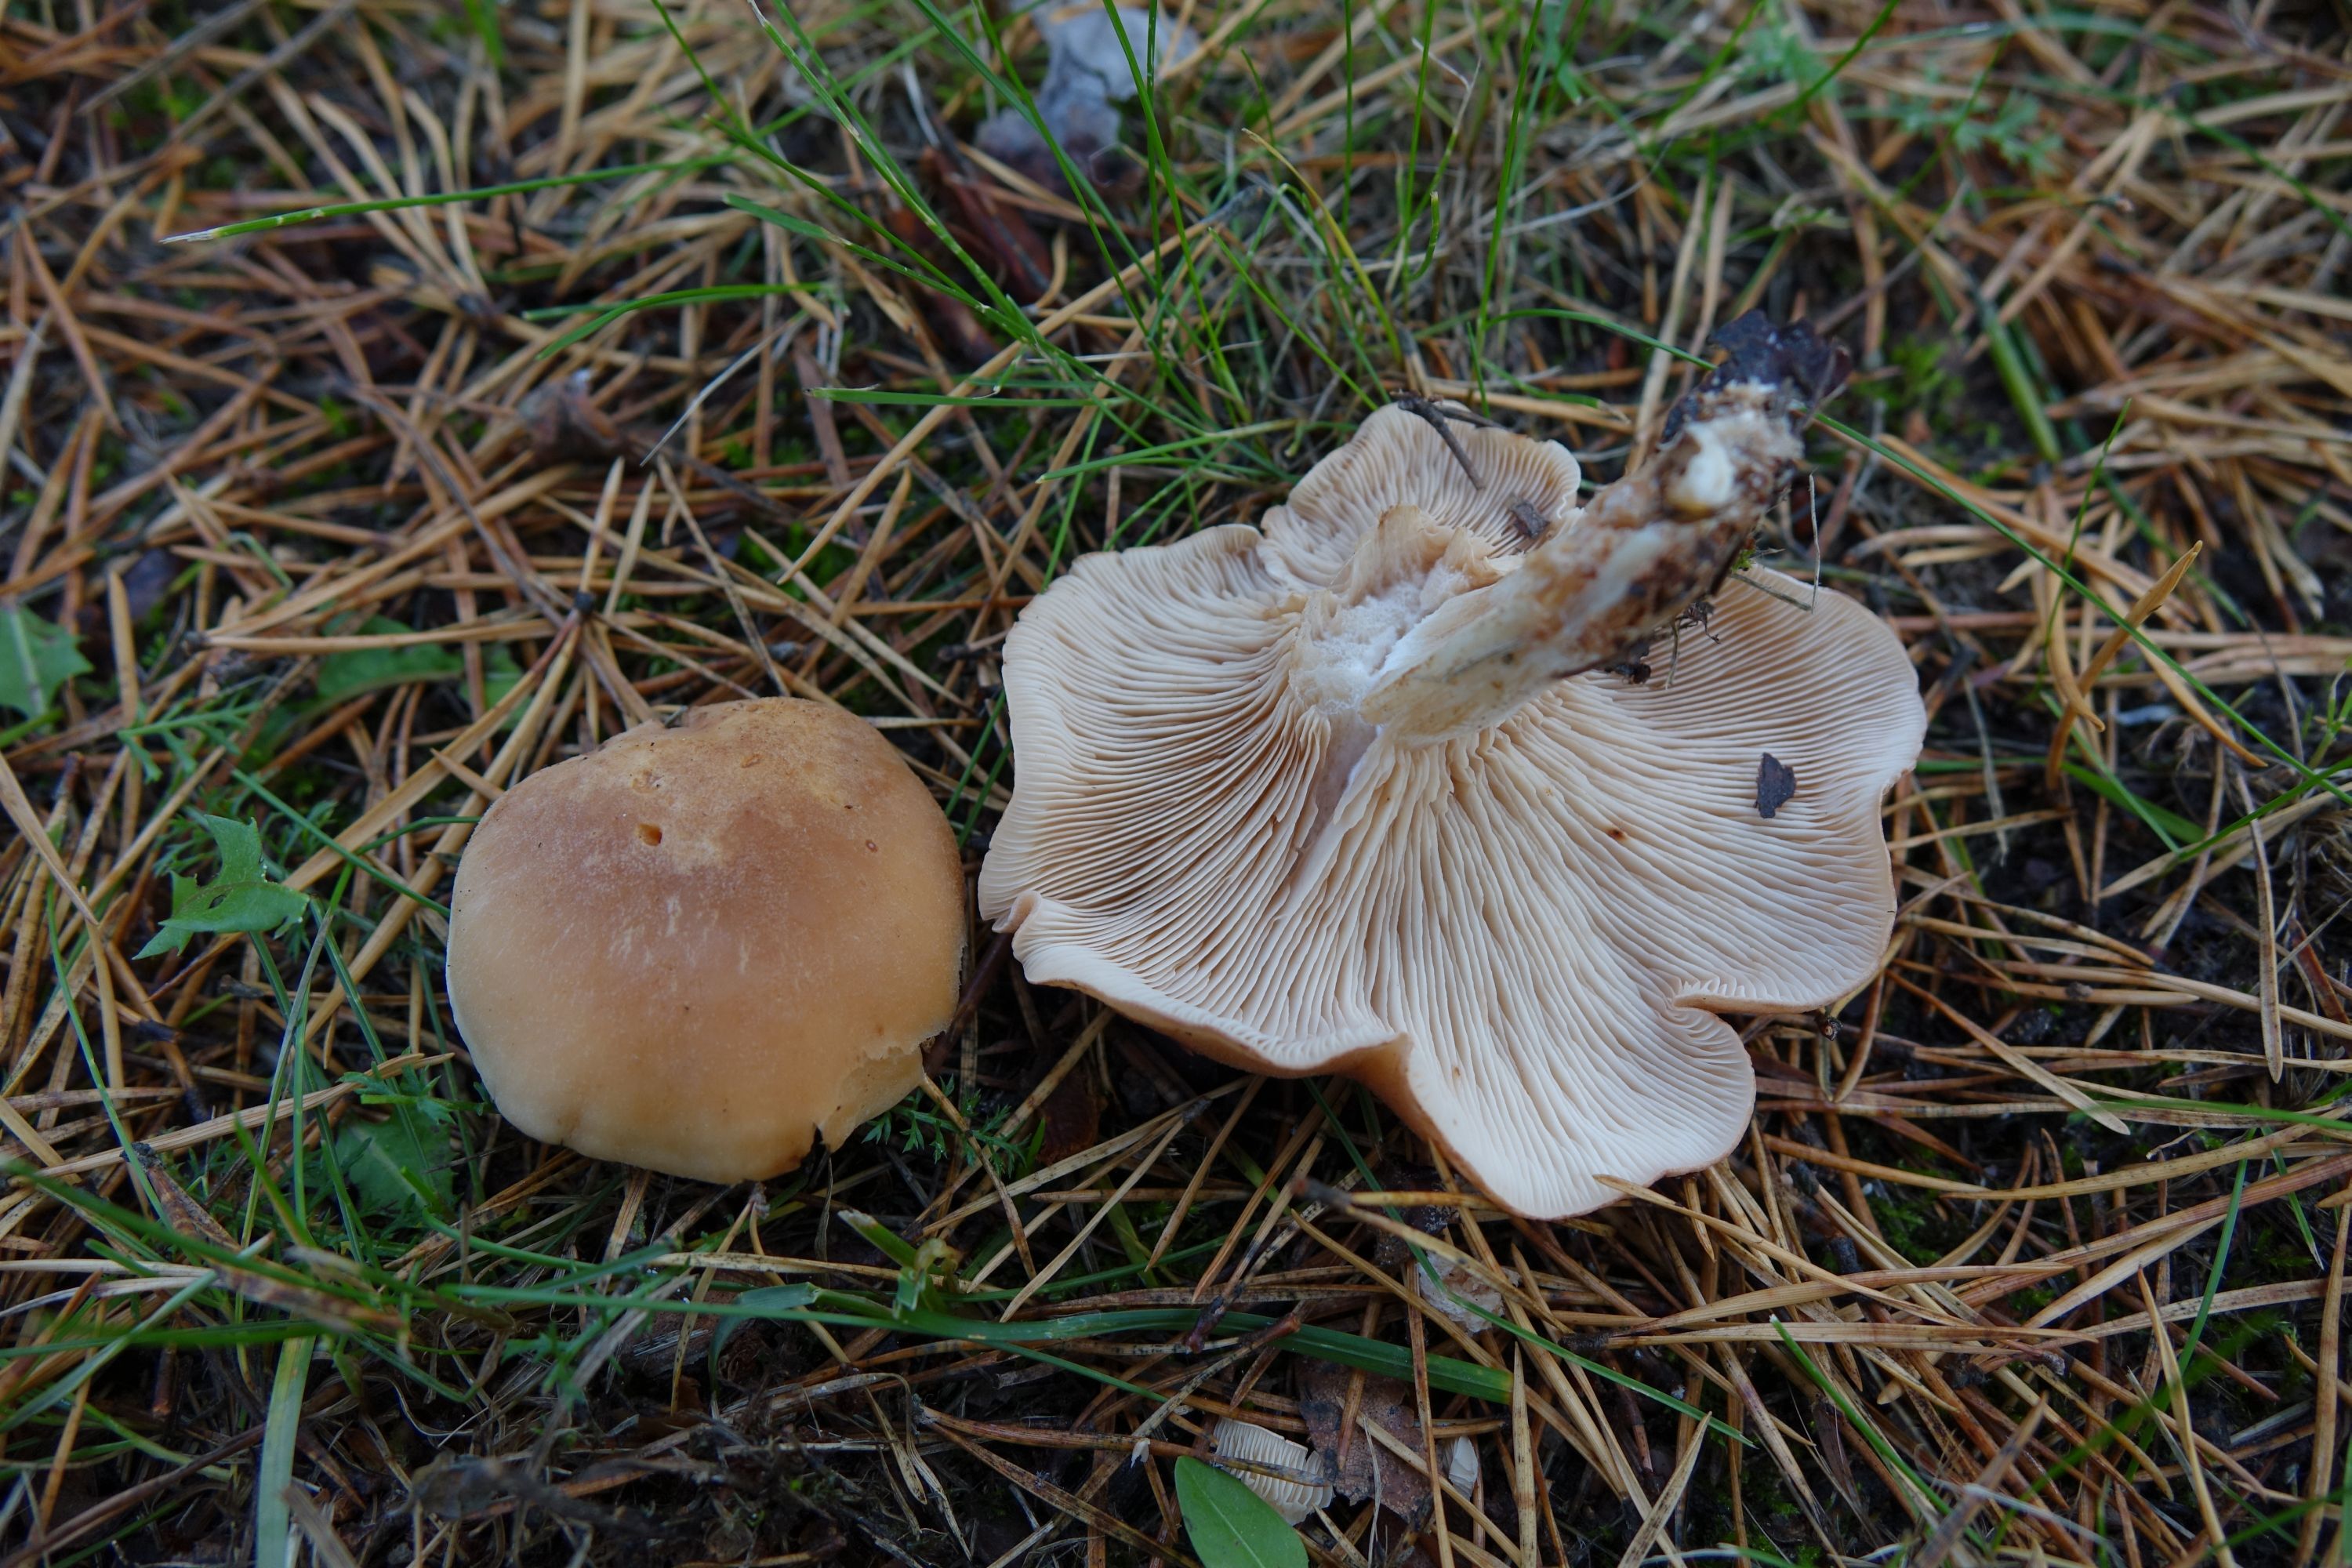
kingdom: Fungi
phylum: Basidiomycota
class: Agaricomycetes
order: Agaricales
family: Entolomataceae
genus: Clitopilus
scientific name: Clitopilus geminus
